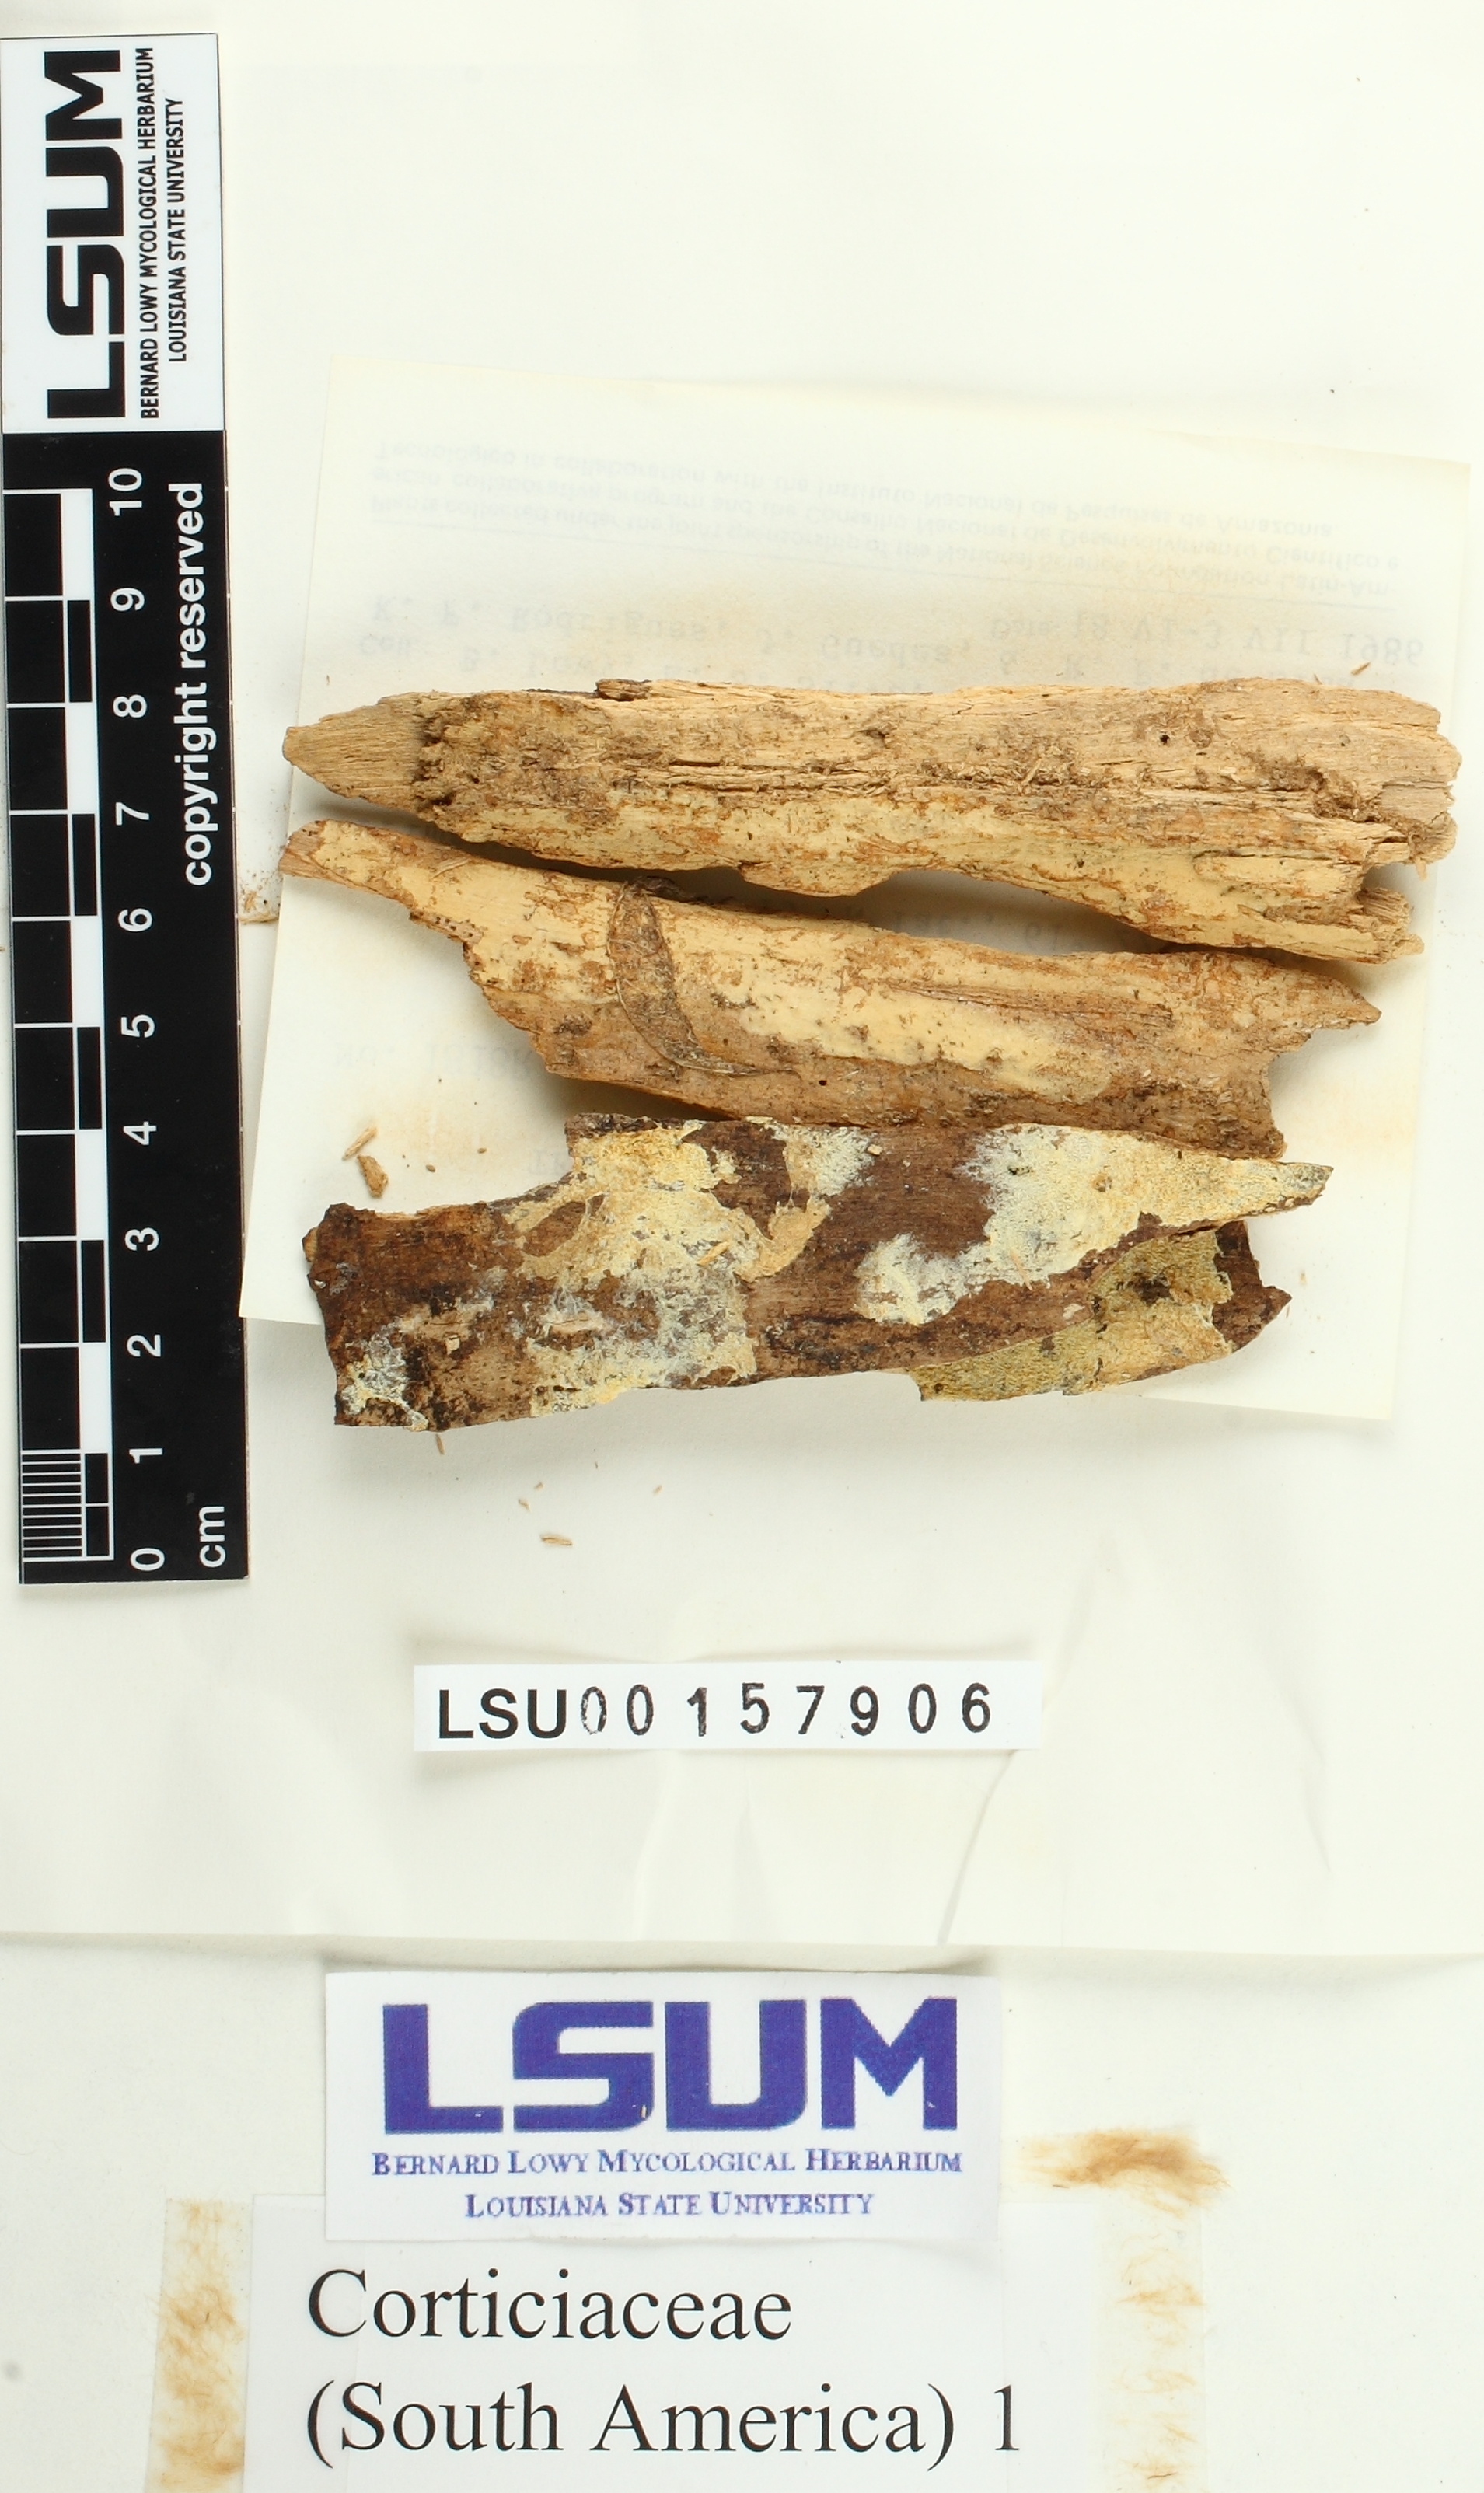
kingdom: Fungi
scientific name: Fungi
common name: Fungi
